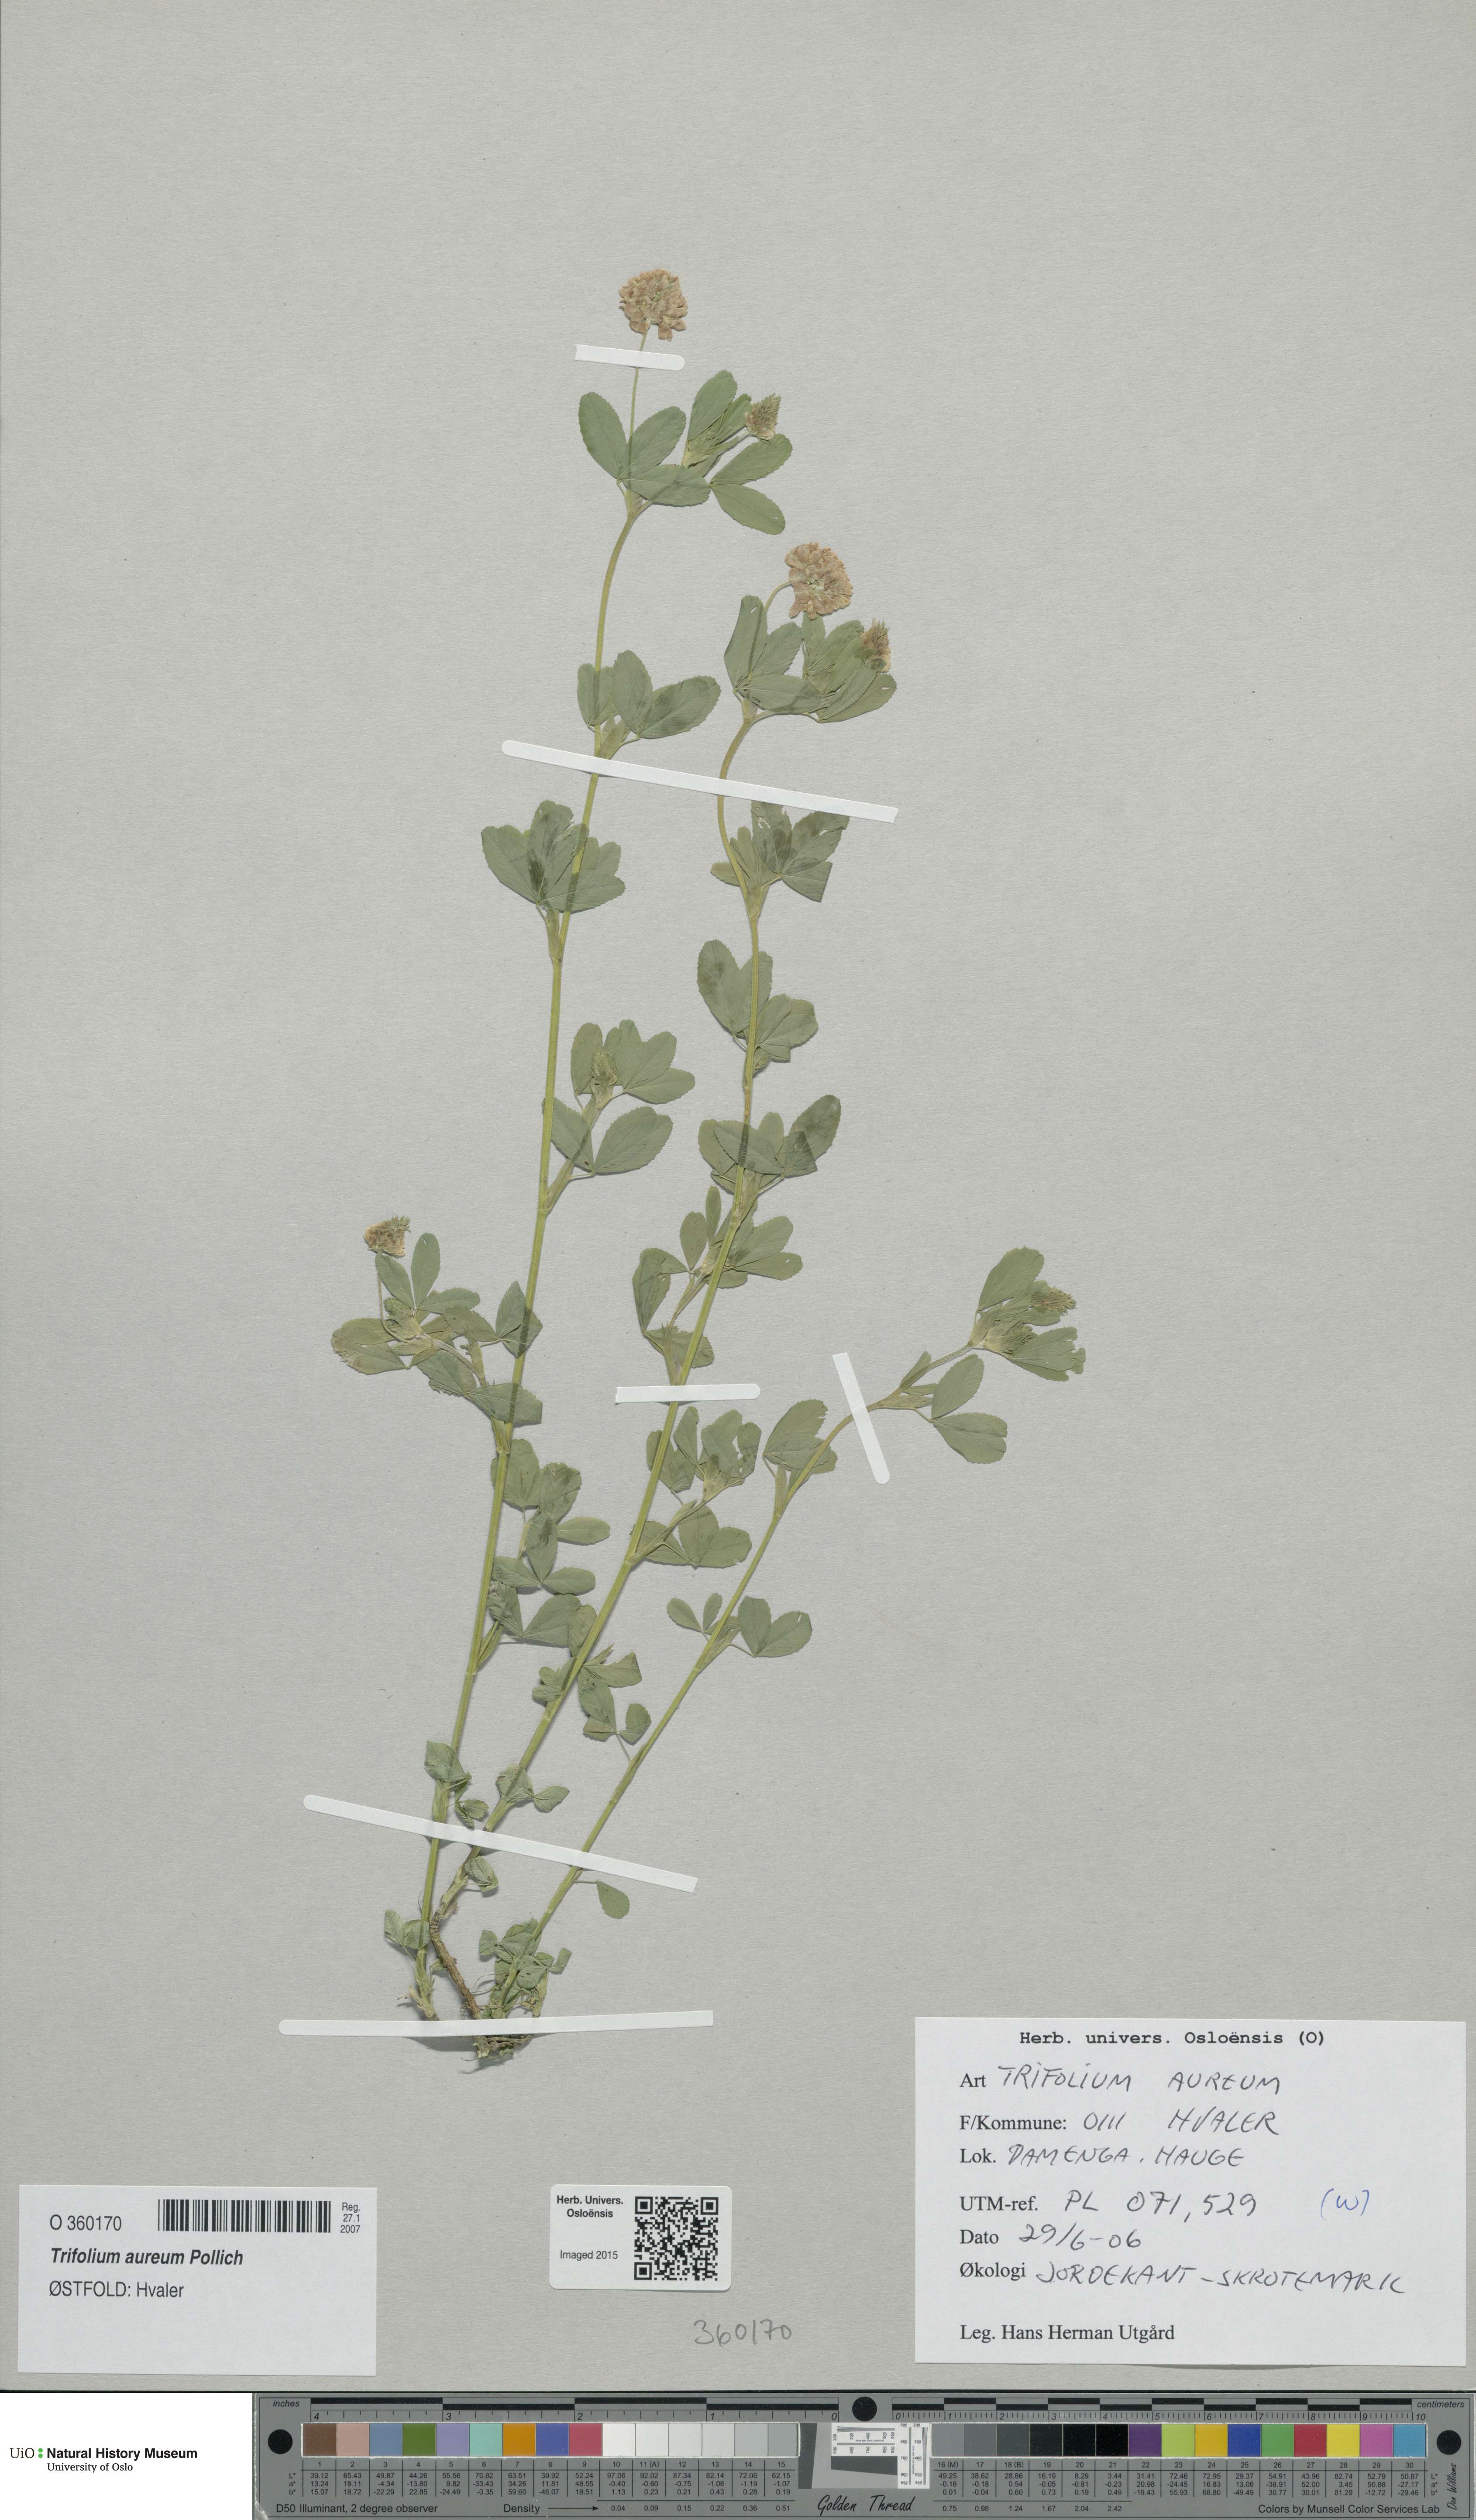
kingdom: Plantae
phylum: Tracheophyta
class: Magnoliopsida
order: Fabales
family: Fabaceae
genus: Trifolium
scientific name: Trifolium aureum
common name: Golden clover
